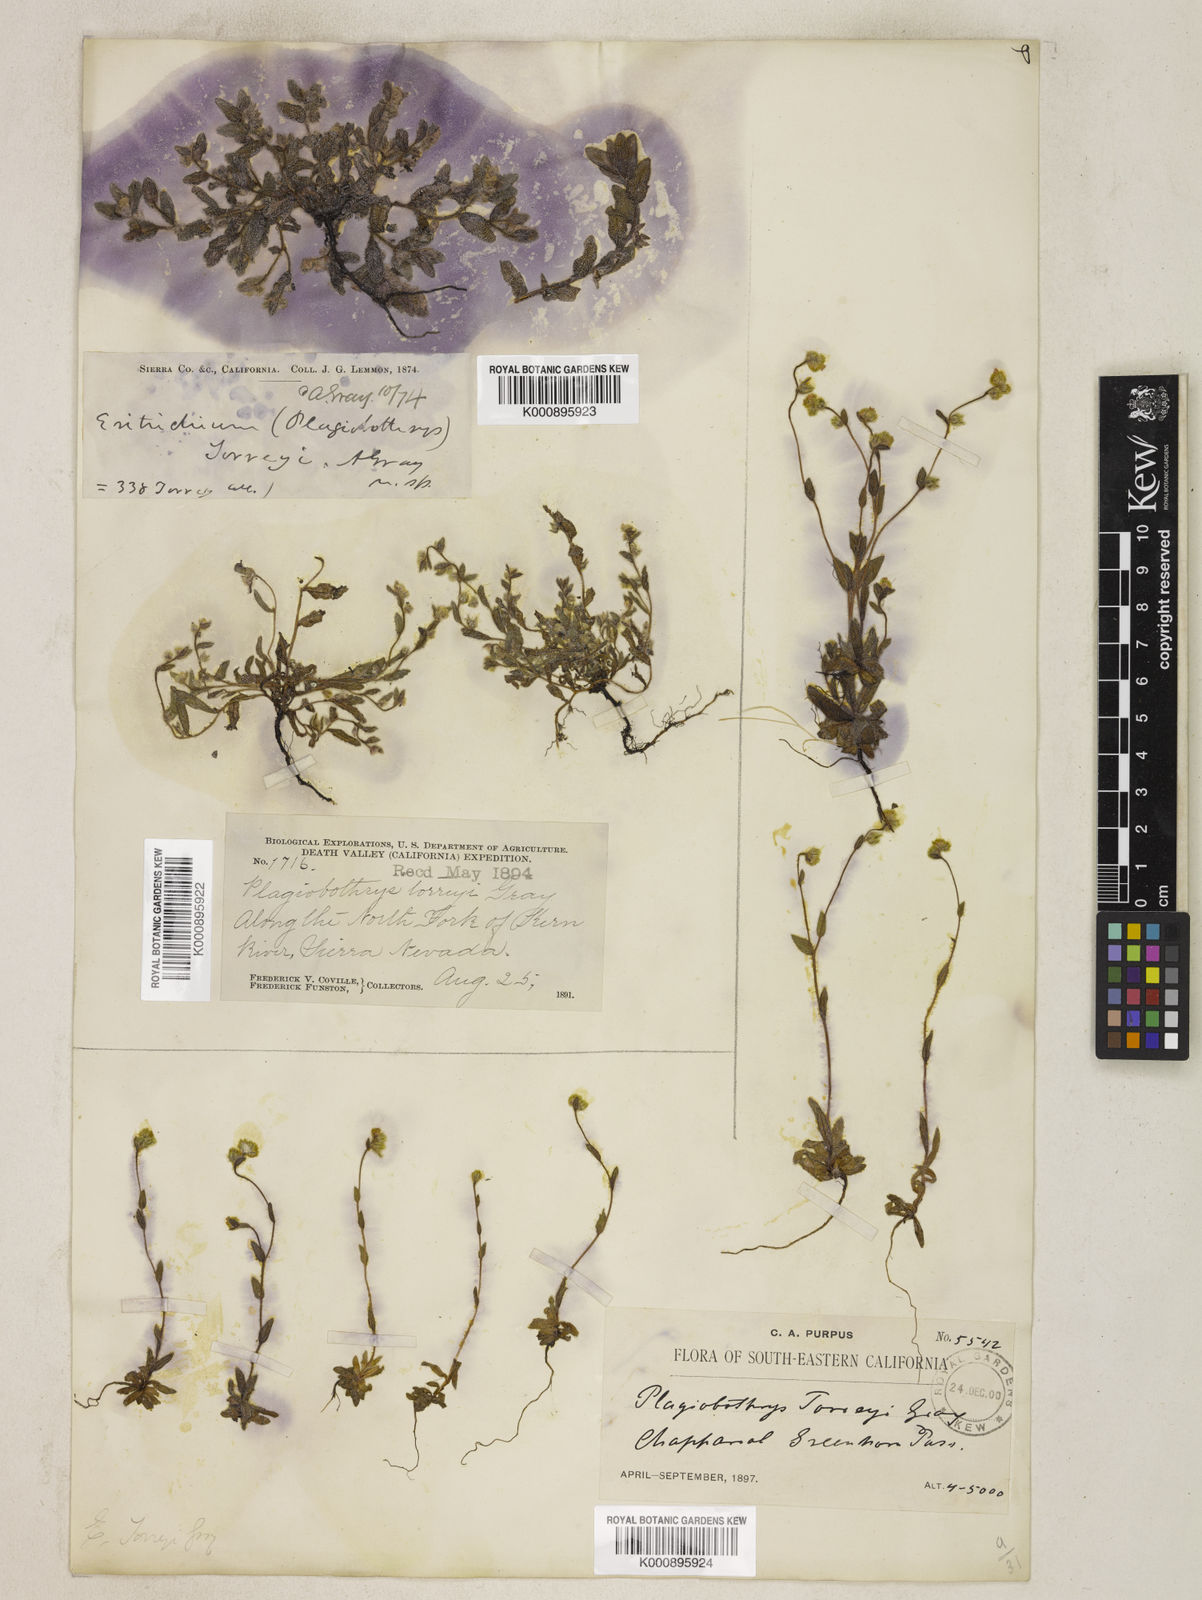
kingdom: Plantae
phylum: Tracheophyta
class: Magnoliopsida
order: Boraginales
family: Boraginaceae
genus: Plagiobothrys
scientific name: Plagiobothrys torreyi
